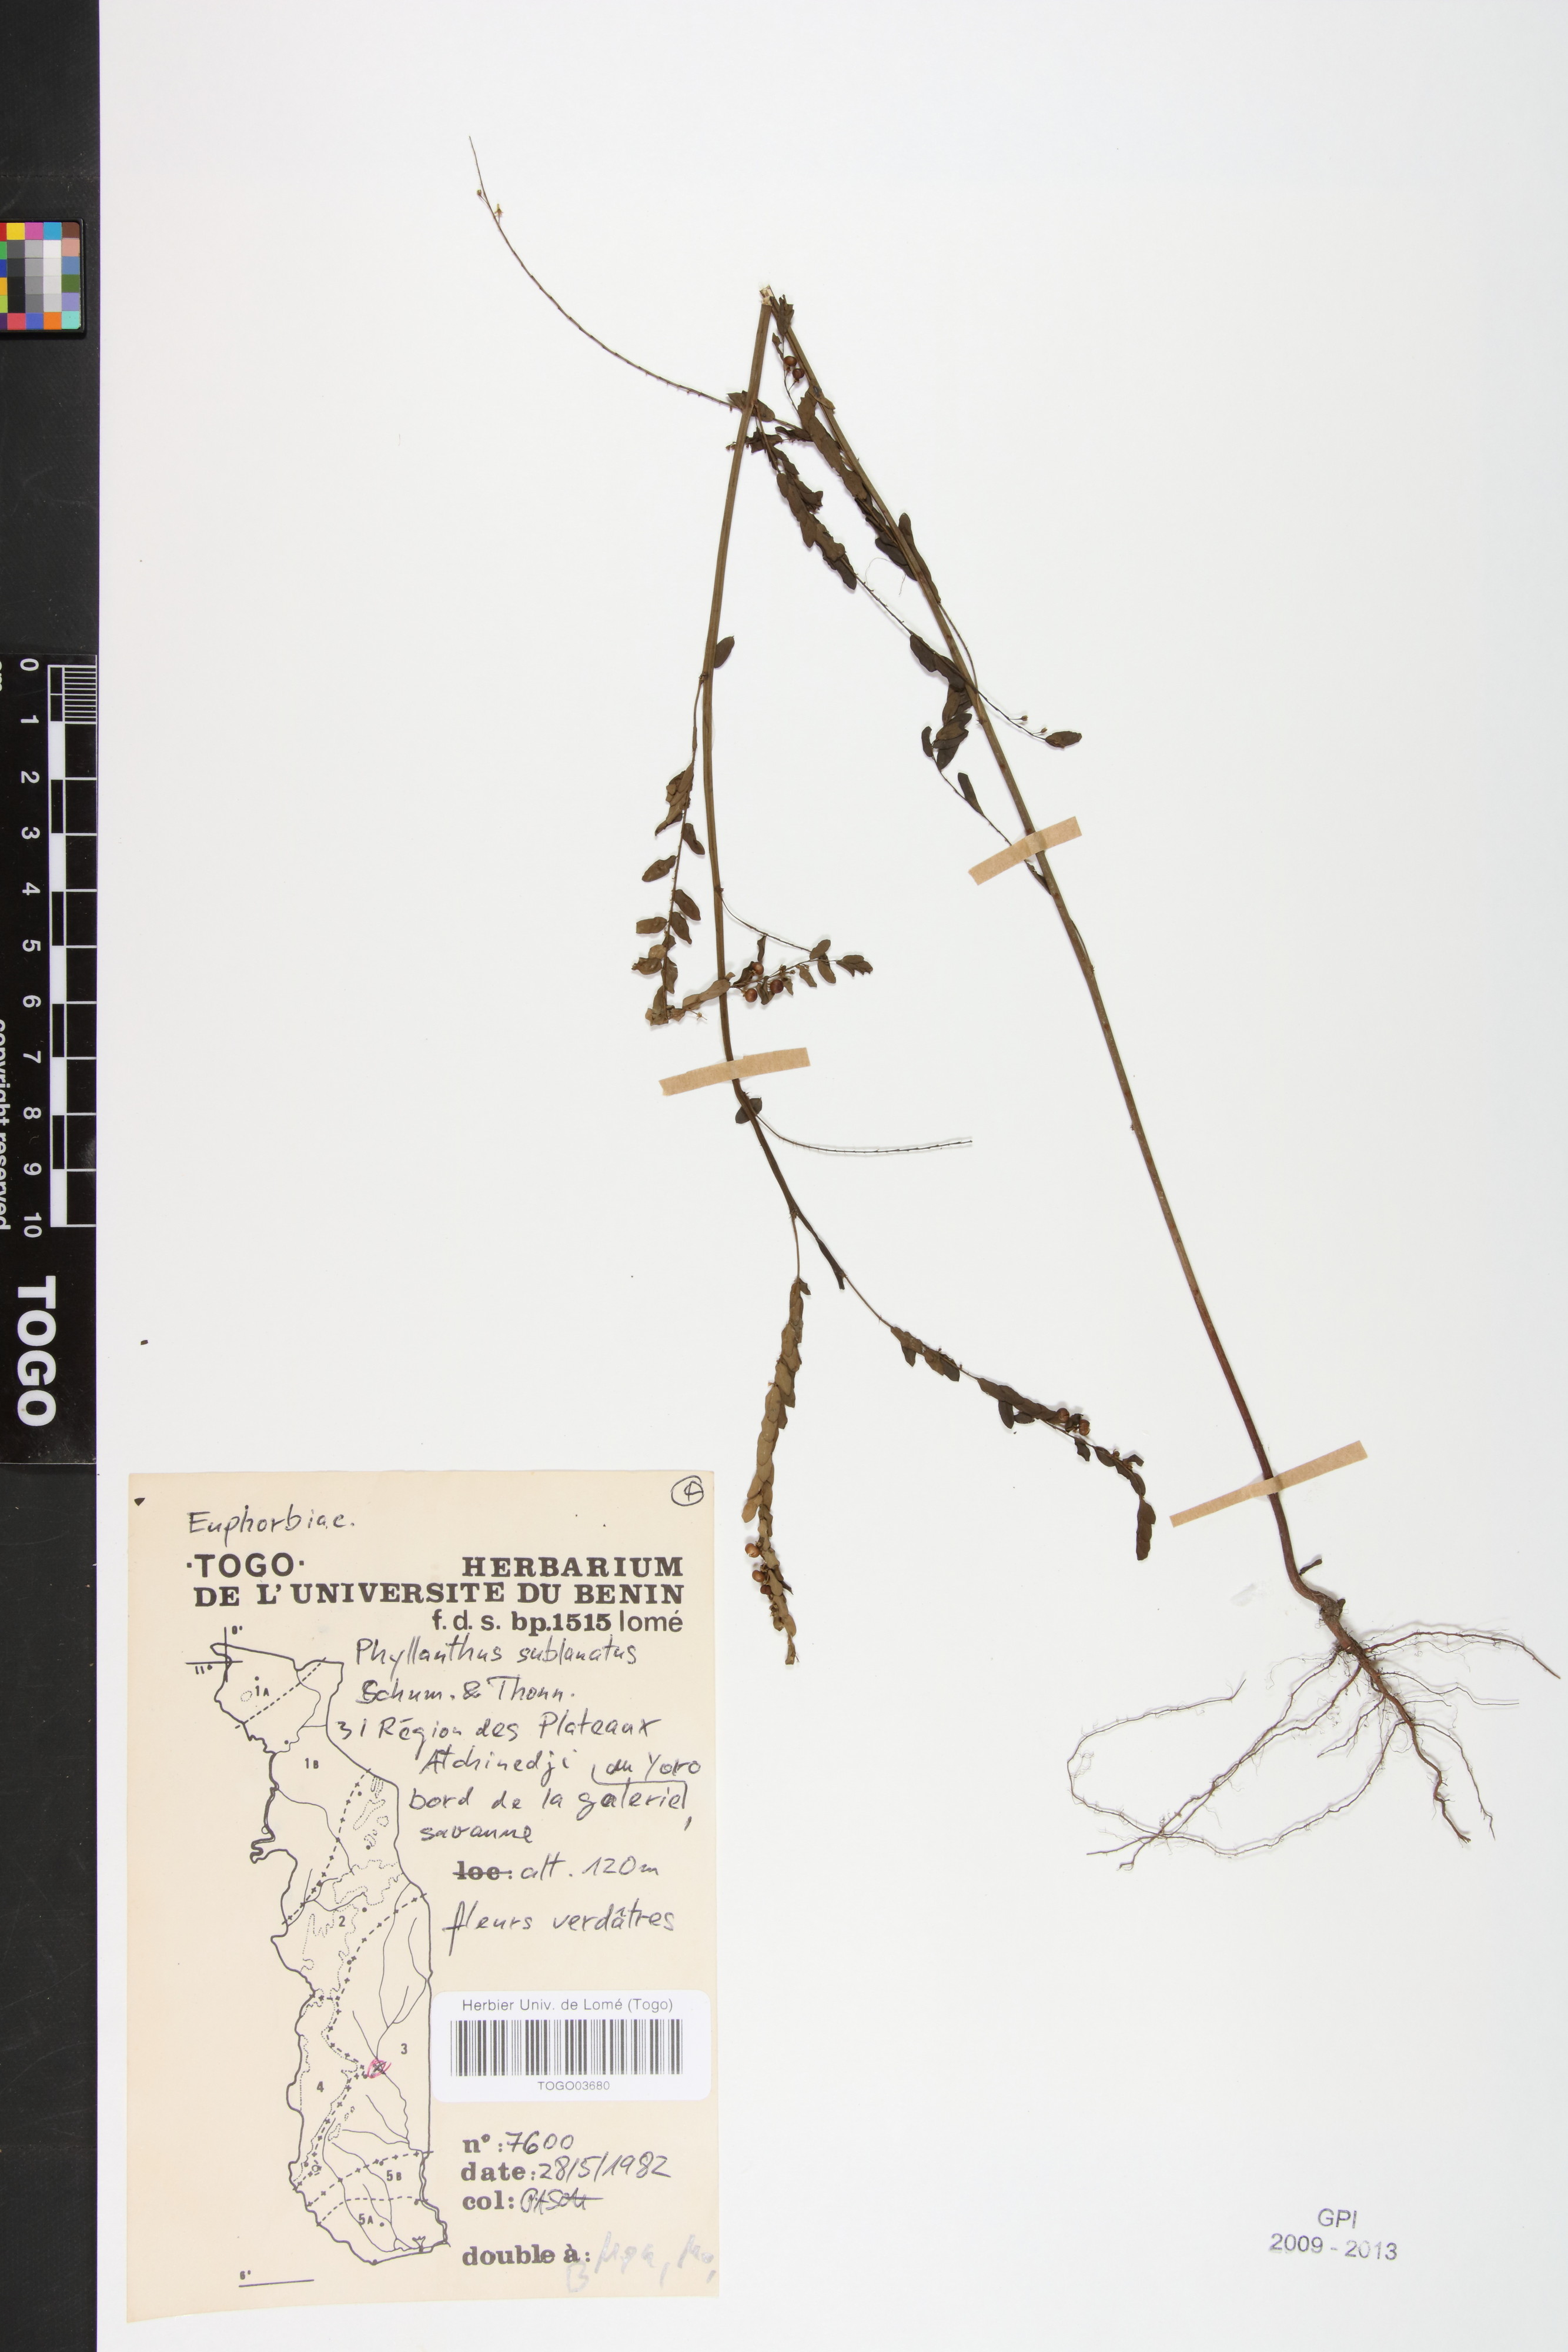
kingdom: Plantae
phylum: Tracheophyta
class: Magnoliopsida
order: Malpighiales
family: Phyllanthaceae
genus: Phyllanthus
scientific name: Phyllanthus sublanatus
